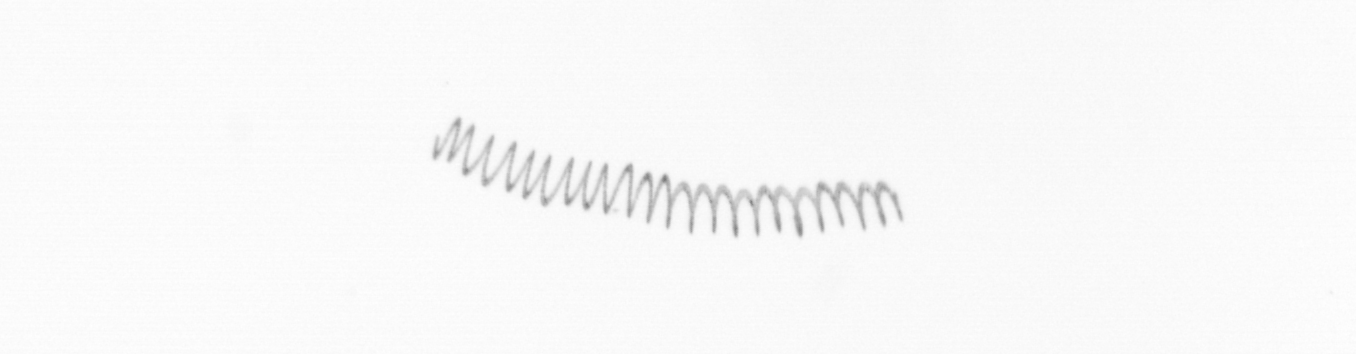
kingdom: Chromista
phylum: Ochrophyta
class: Bacillariophyceae
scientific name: Bacillariophyceae
